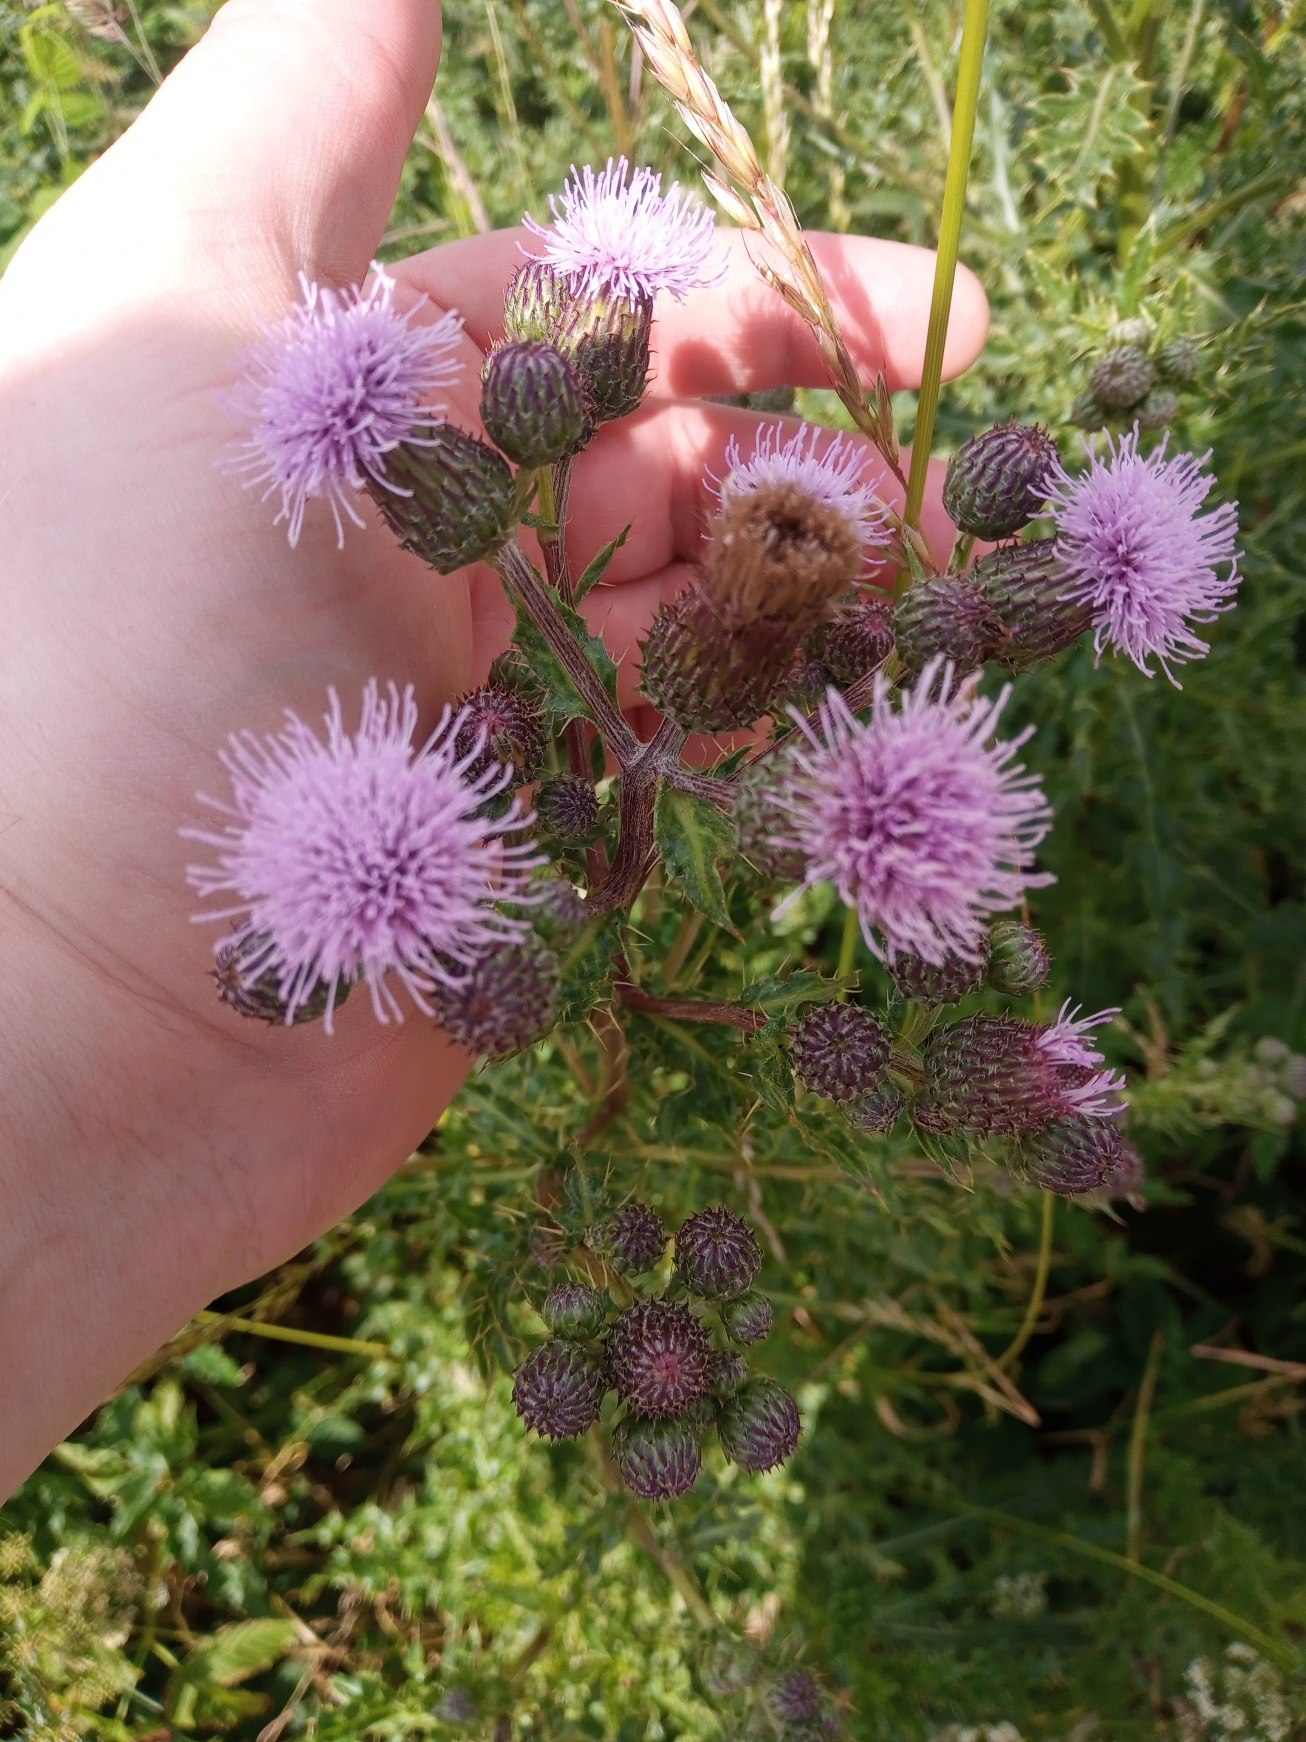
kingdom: Plantae
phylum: Tracheophyta
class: Magnoliopsida
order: Asterales
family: Asteraceae
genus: Cirsium
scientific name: Cirsium arvense
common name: Ager-tidsel
